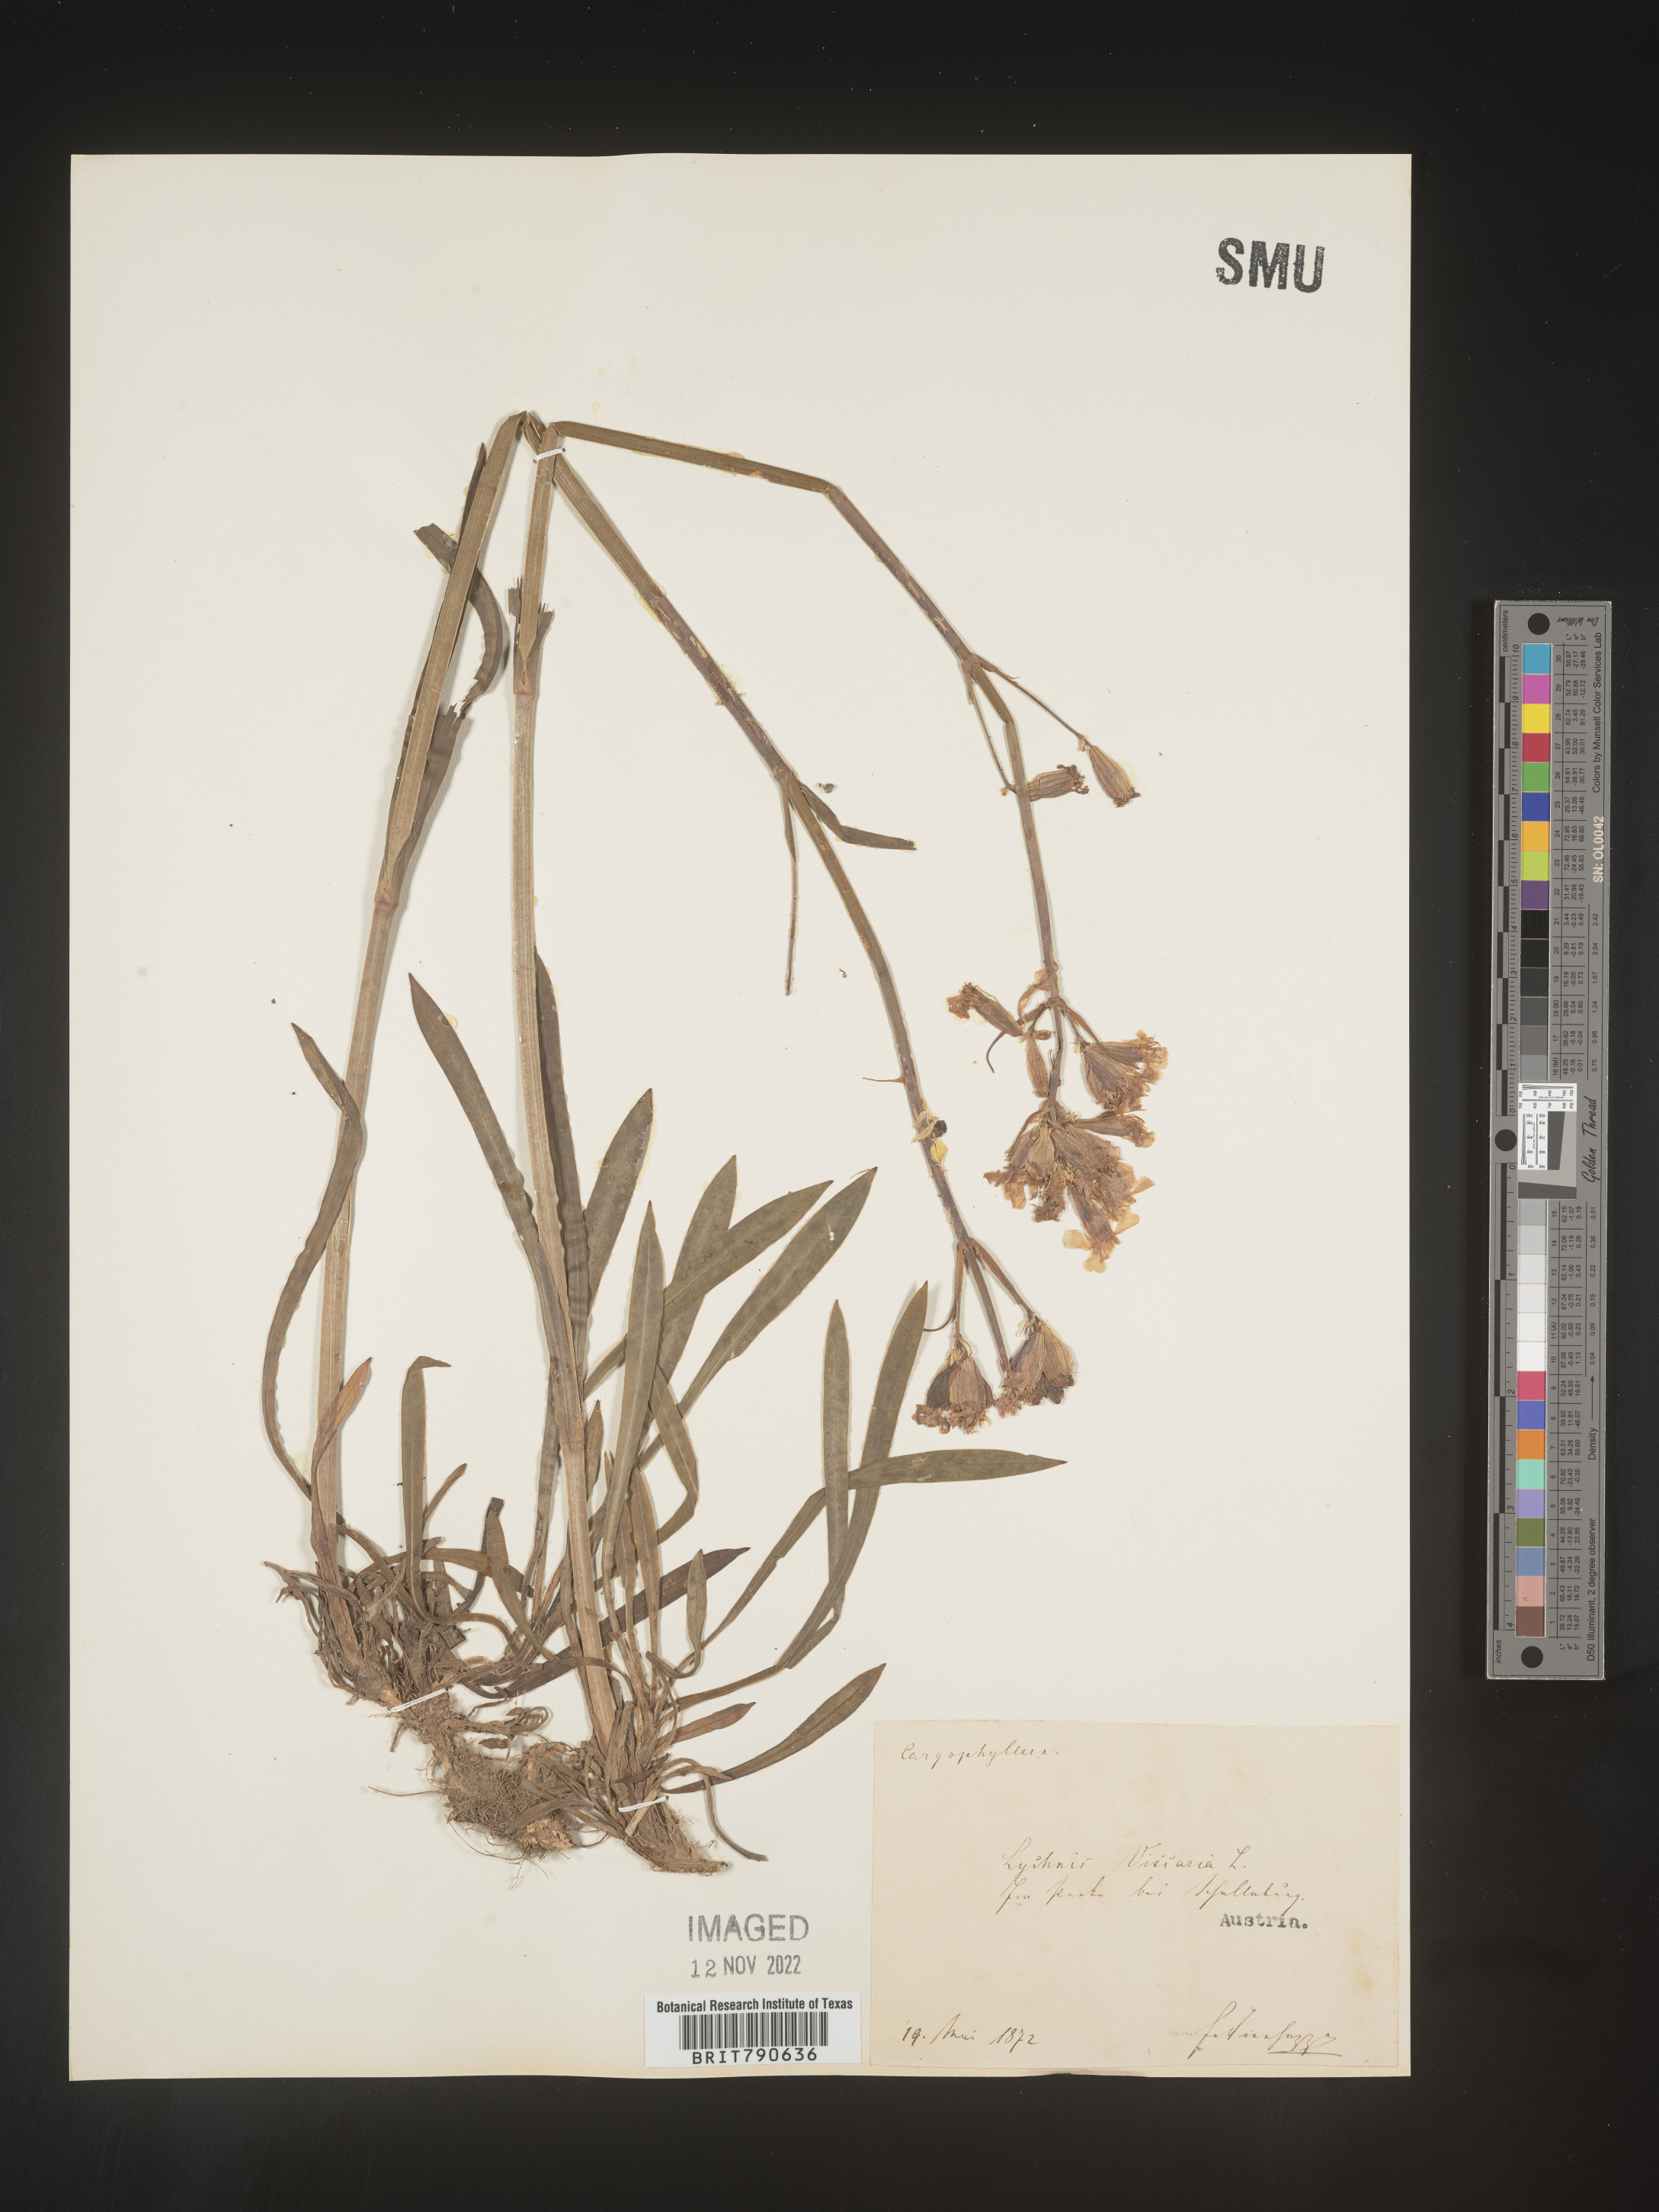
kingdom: Plantae
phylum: Tracheophyta
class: Magnoliopsida
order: Caryophyllales
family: Caryophyllaceae
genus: Silene
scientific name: Silene
